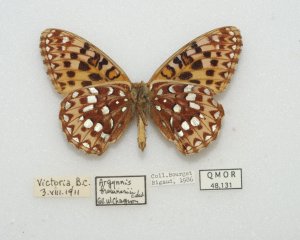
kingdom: Animalia
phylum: Arthropoda
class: Insecta
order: Lepidoptera
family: Nymphalidae
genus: Speyeria
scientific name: Speyeria zerene
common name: Zerene Fritillary
